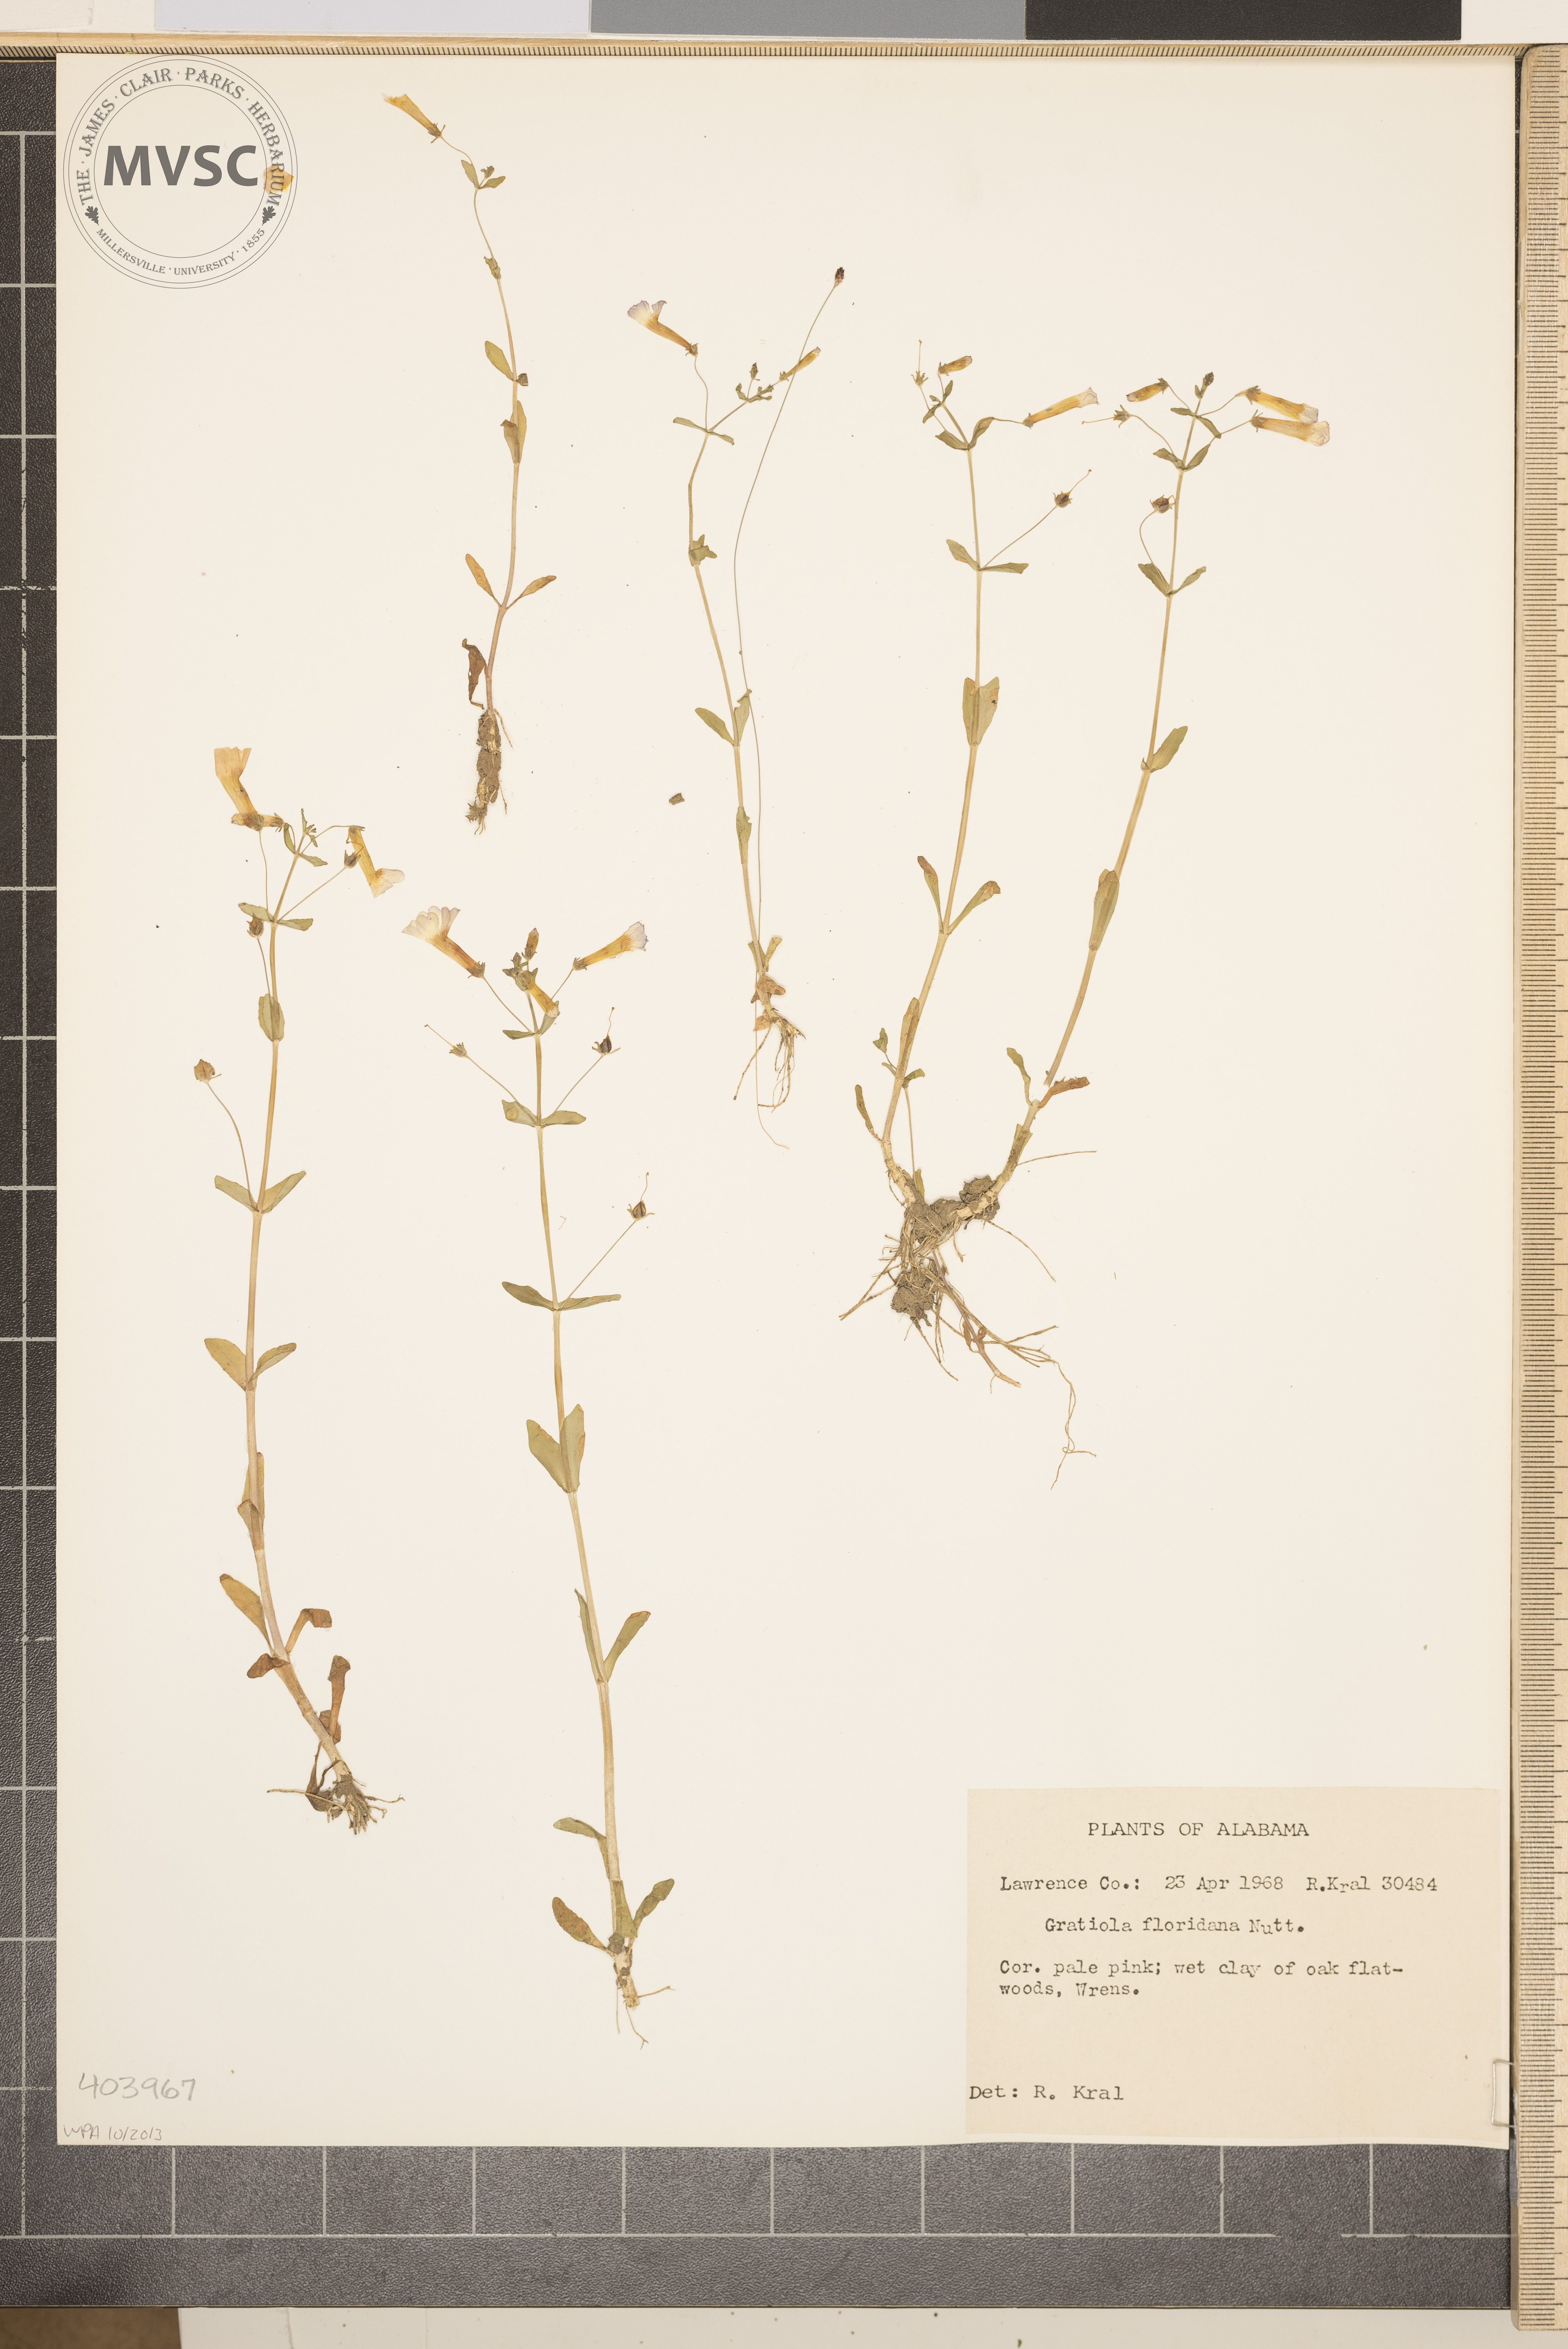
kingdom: Plantae
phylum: Tracheophyta
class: Magnoliopsida
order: Lamiales
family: Plantaginaceae
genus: Gratiola
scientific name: Gratiola floridana
